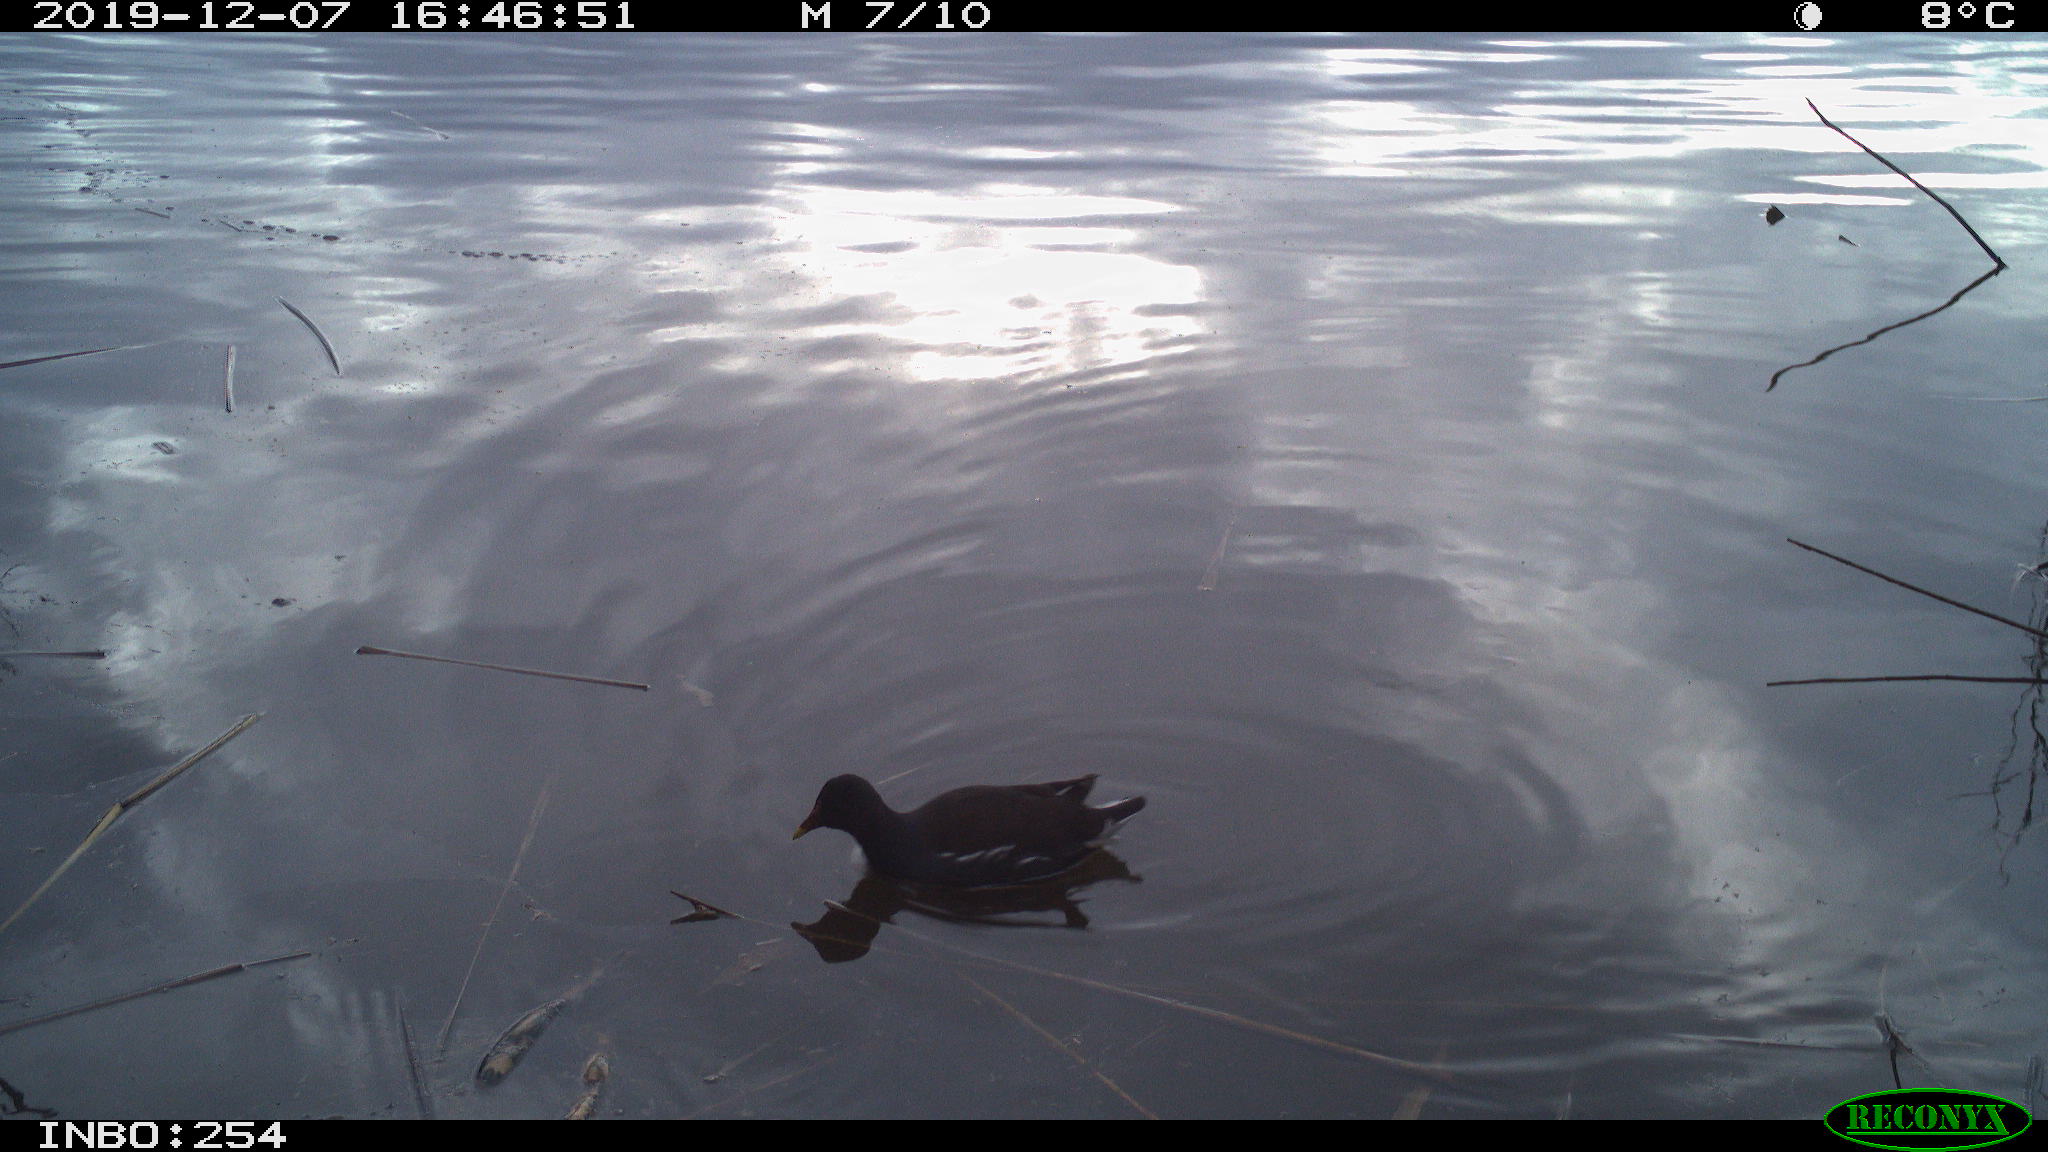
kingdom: Animalia
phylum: Chordata
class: Aves
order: Gruiformes
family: Rallidae
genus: Gallinula
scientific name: Gallinula chloropus
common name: Common moorhen
